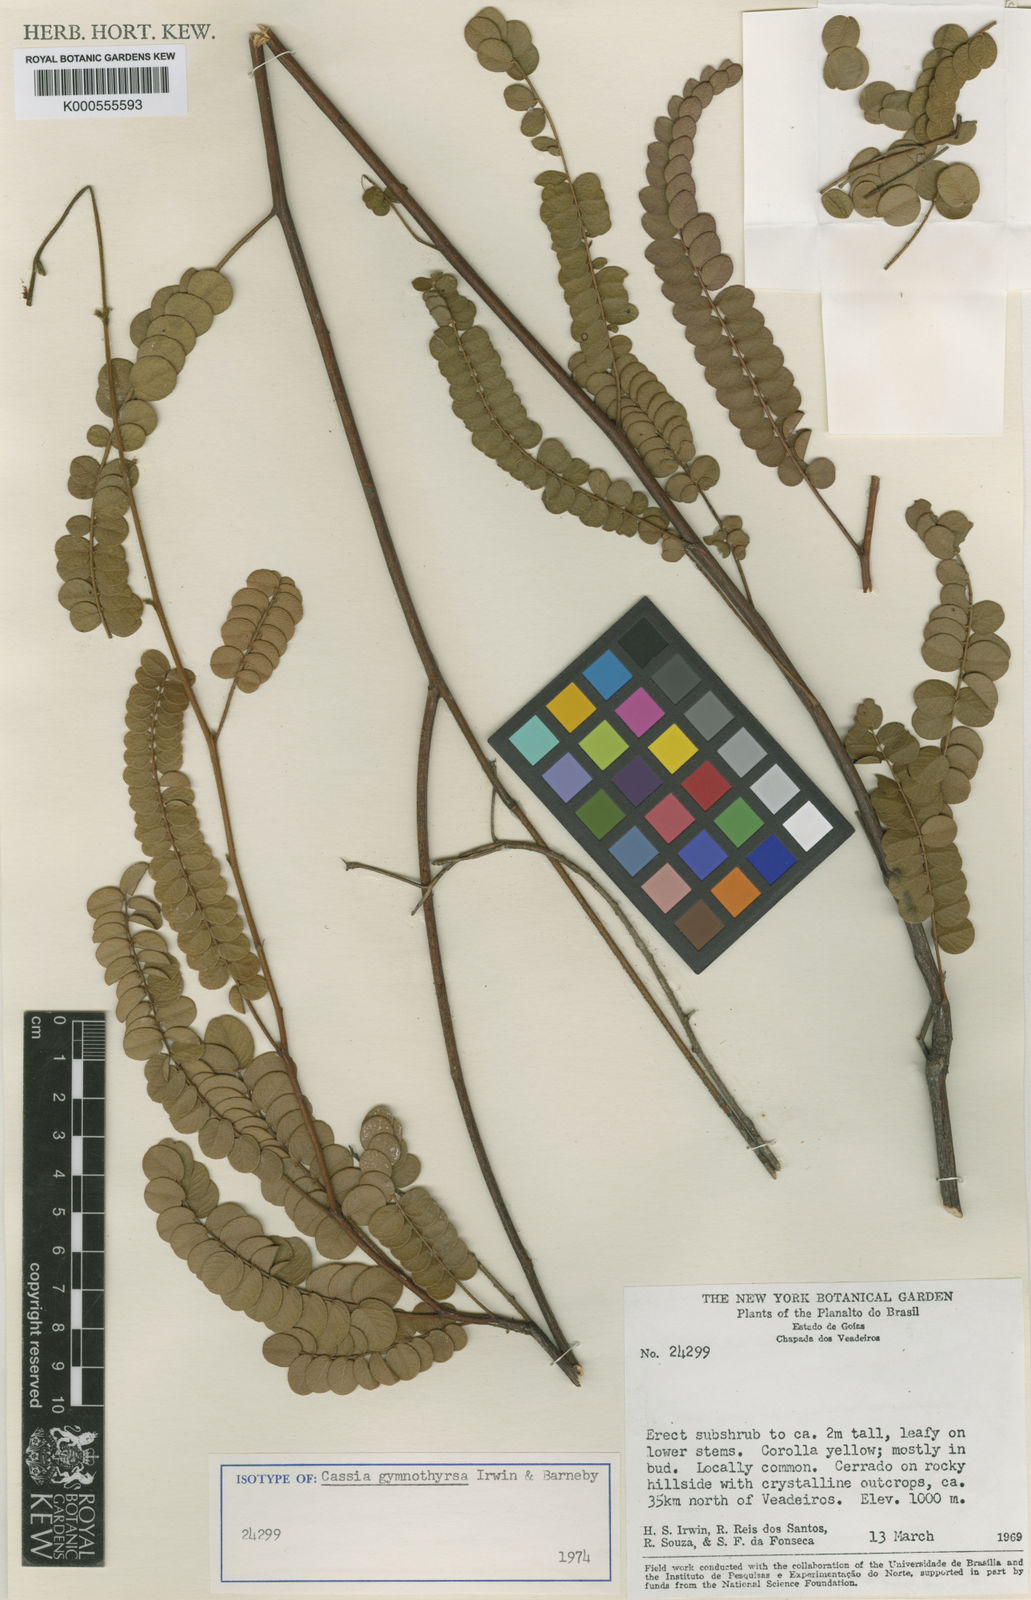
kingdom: Plantae
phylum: Tracheophyta
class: Magnoliopsida
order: Fabales
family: Fabaceae
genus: Chamaecrista
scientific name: Chamaecrista gymnothyrsa
